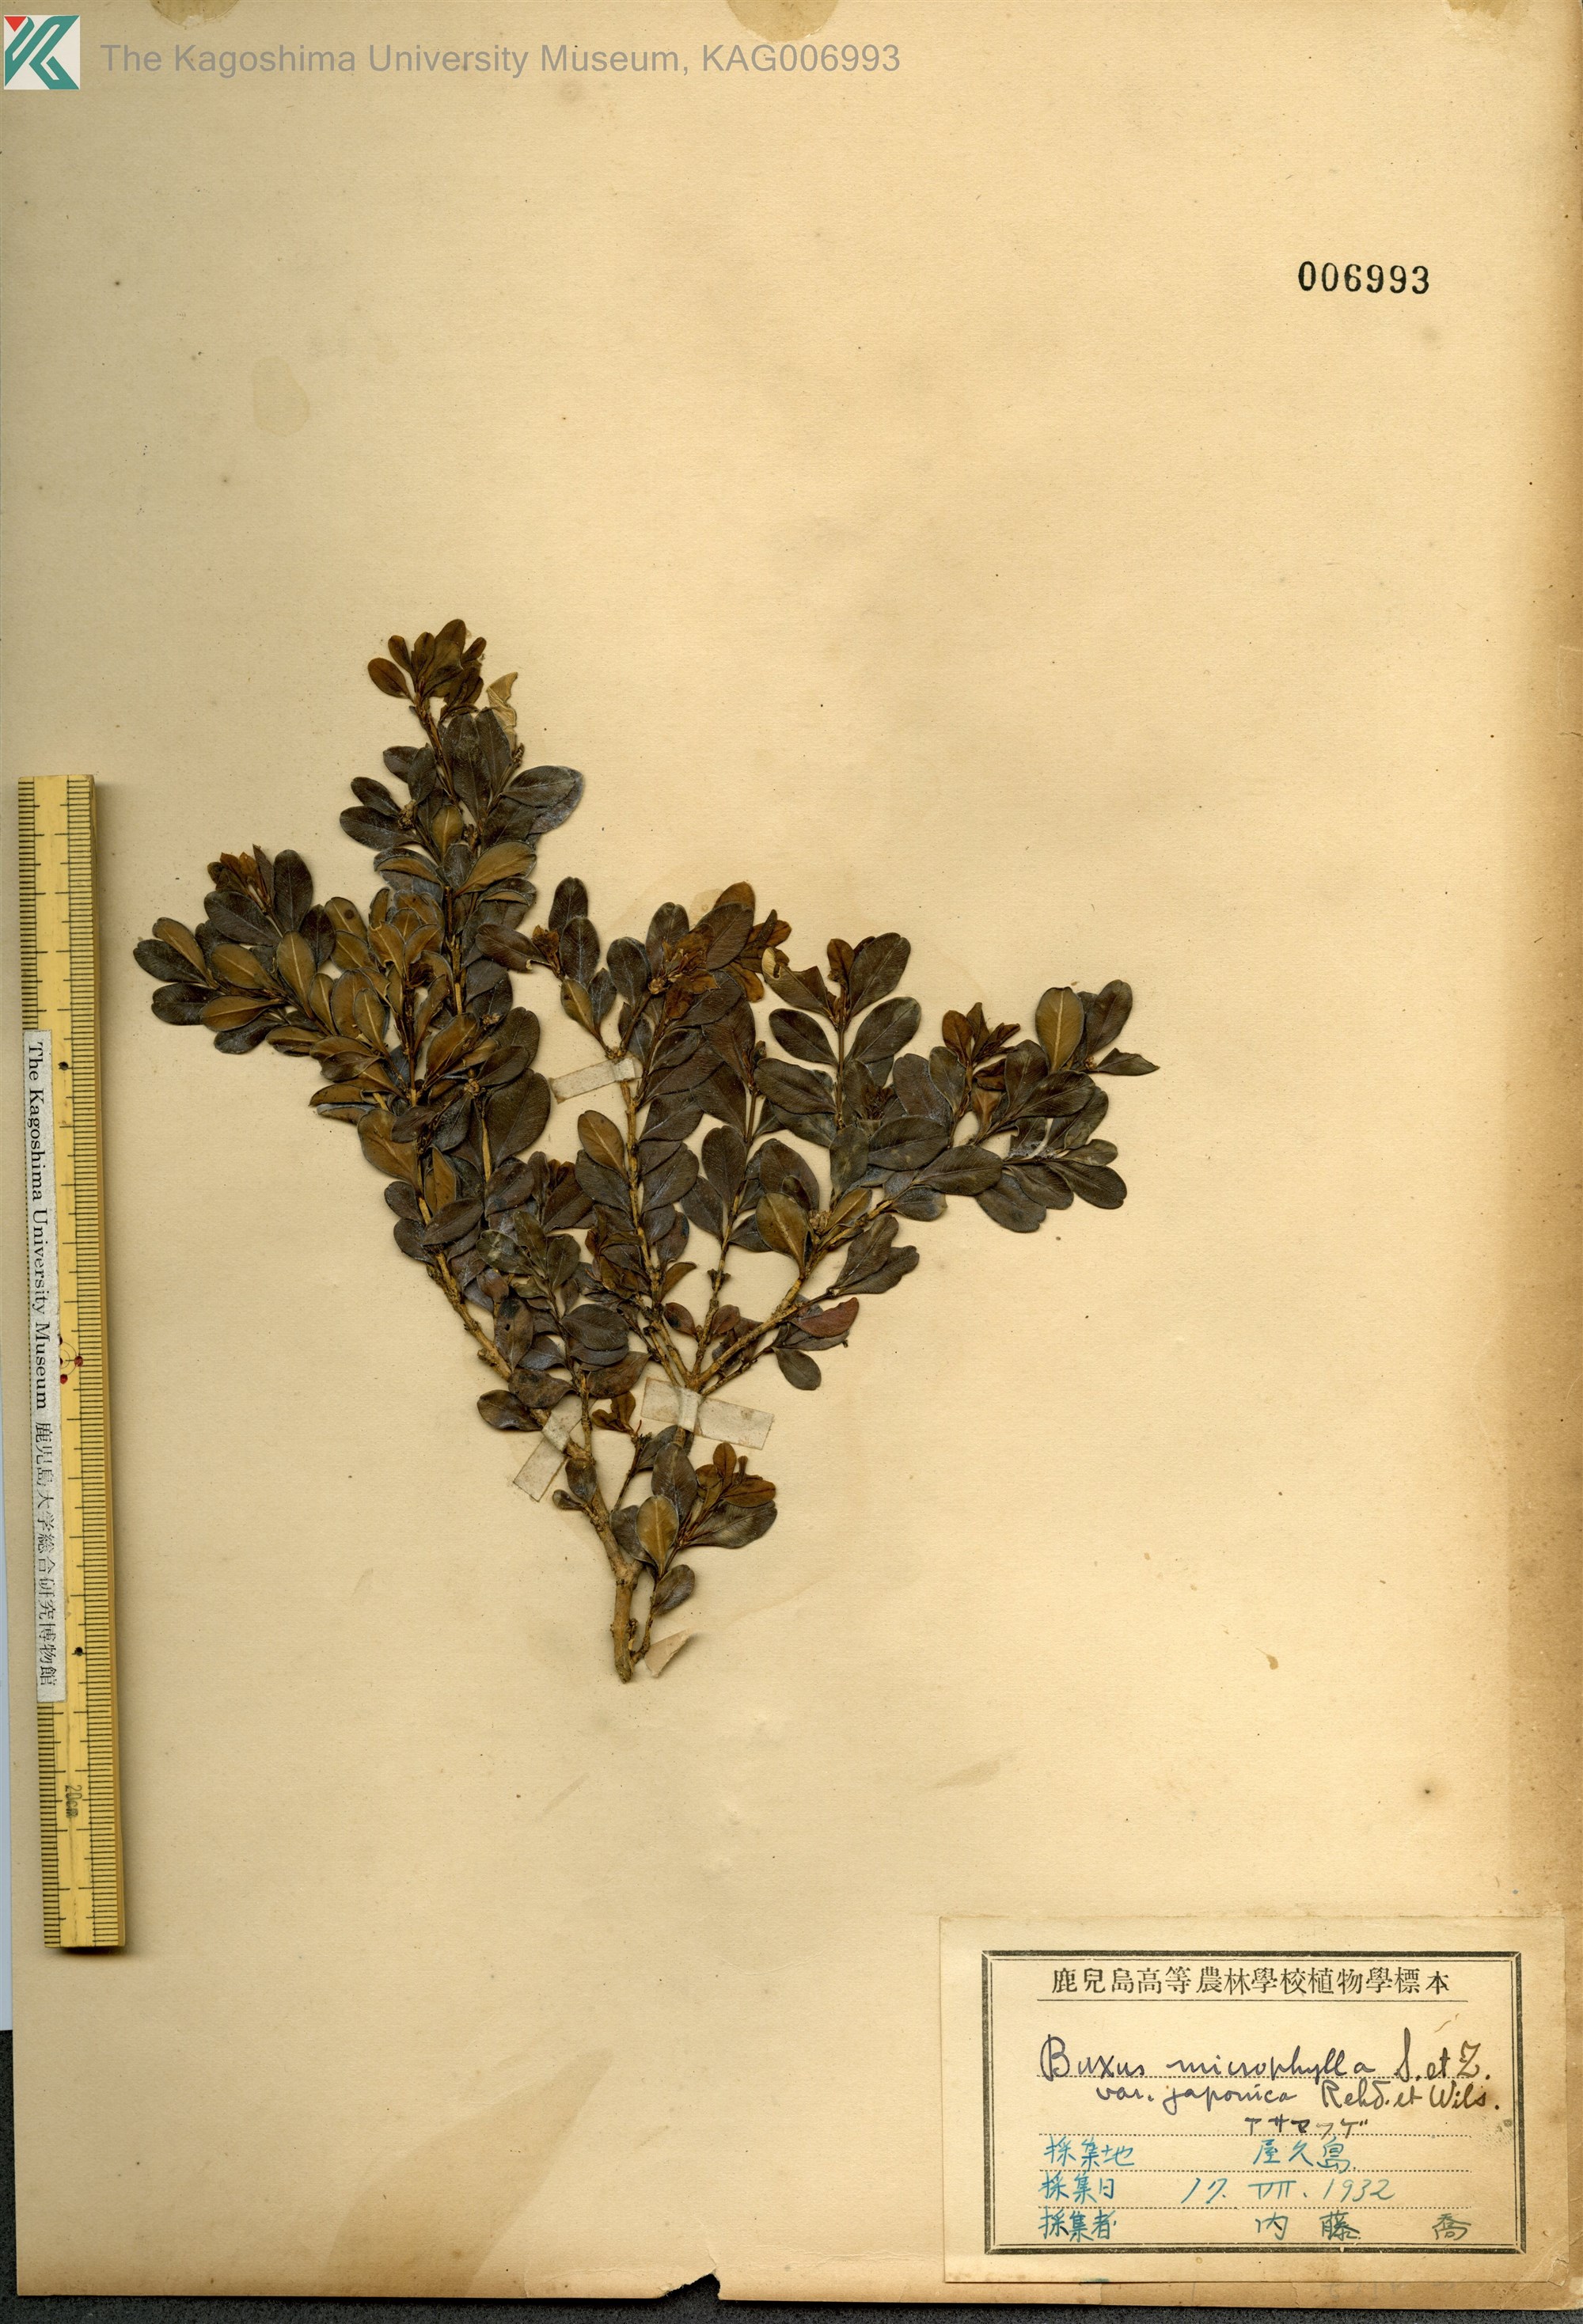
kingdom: Plantae
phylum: Tracheophyta
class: Magnoliopsida
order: Buxales
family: Buxaceae
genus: Buxus
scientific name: Buxus microphylla
